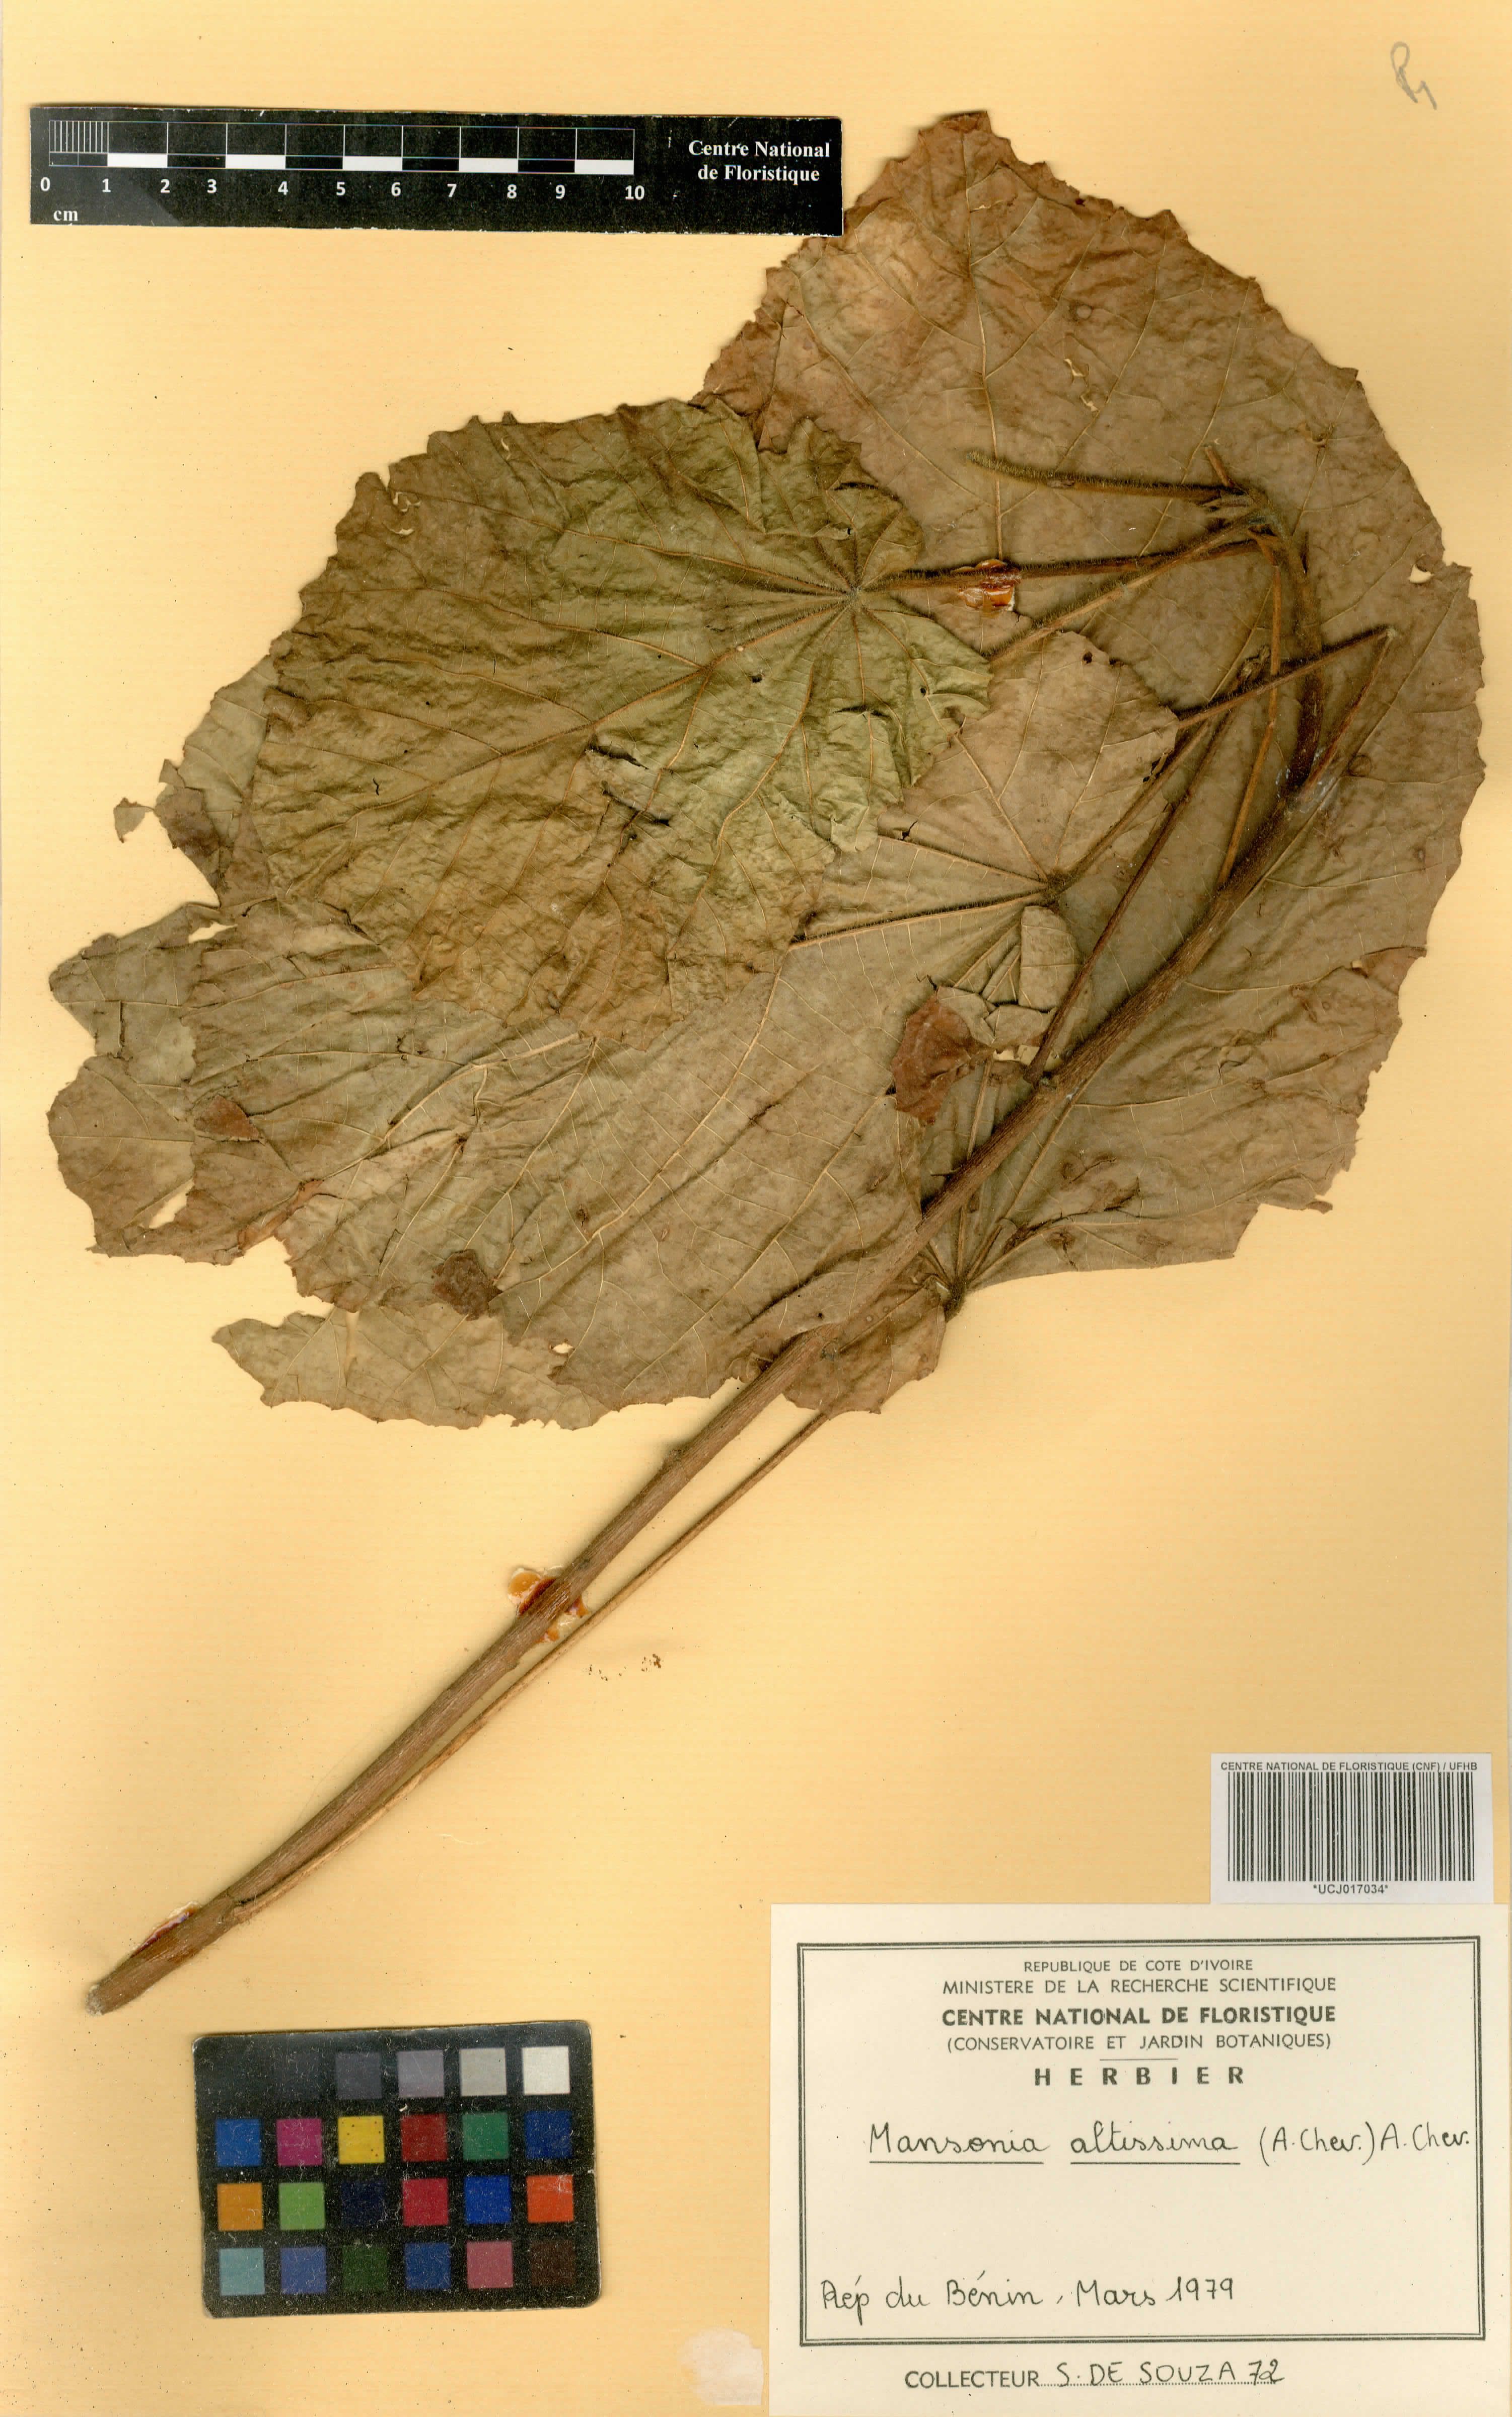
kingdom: Plantae
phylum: Tracheophyta
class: Magnoliopsida
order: Malvales
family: Malvaceae
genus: Mansonia
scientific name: Mansonia altissima
